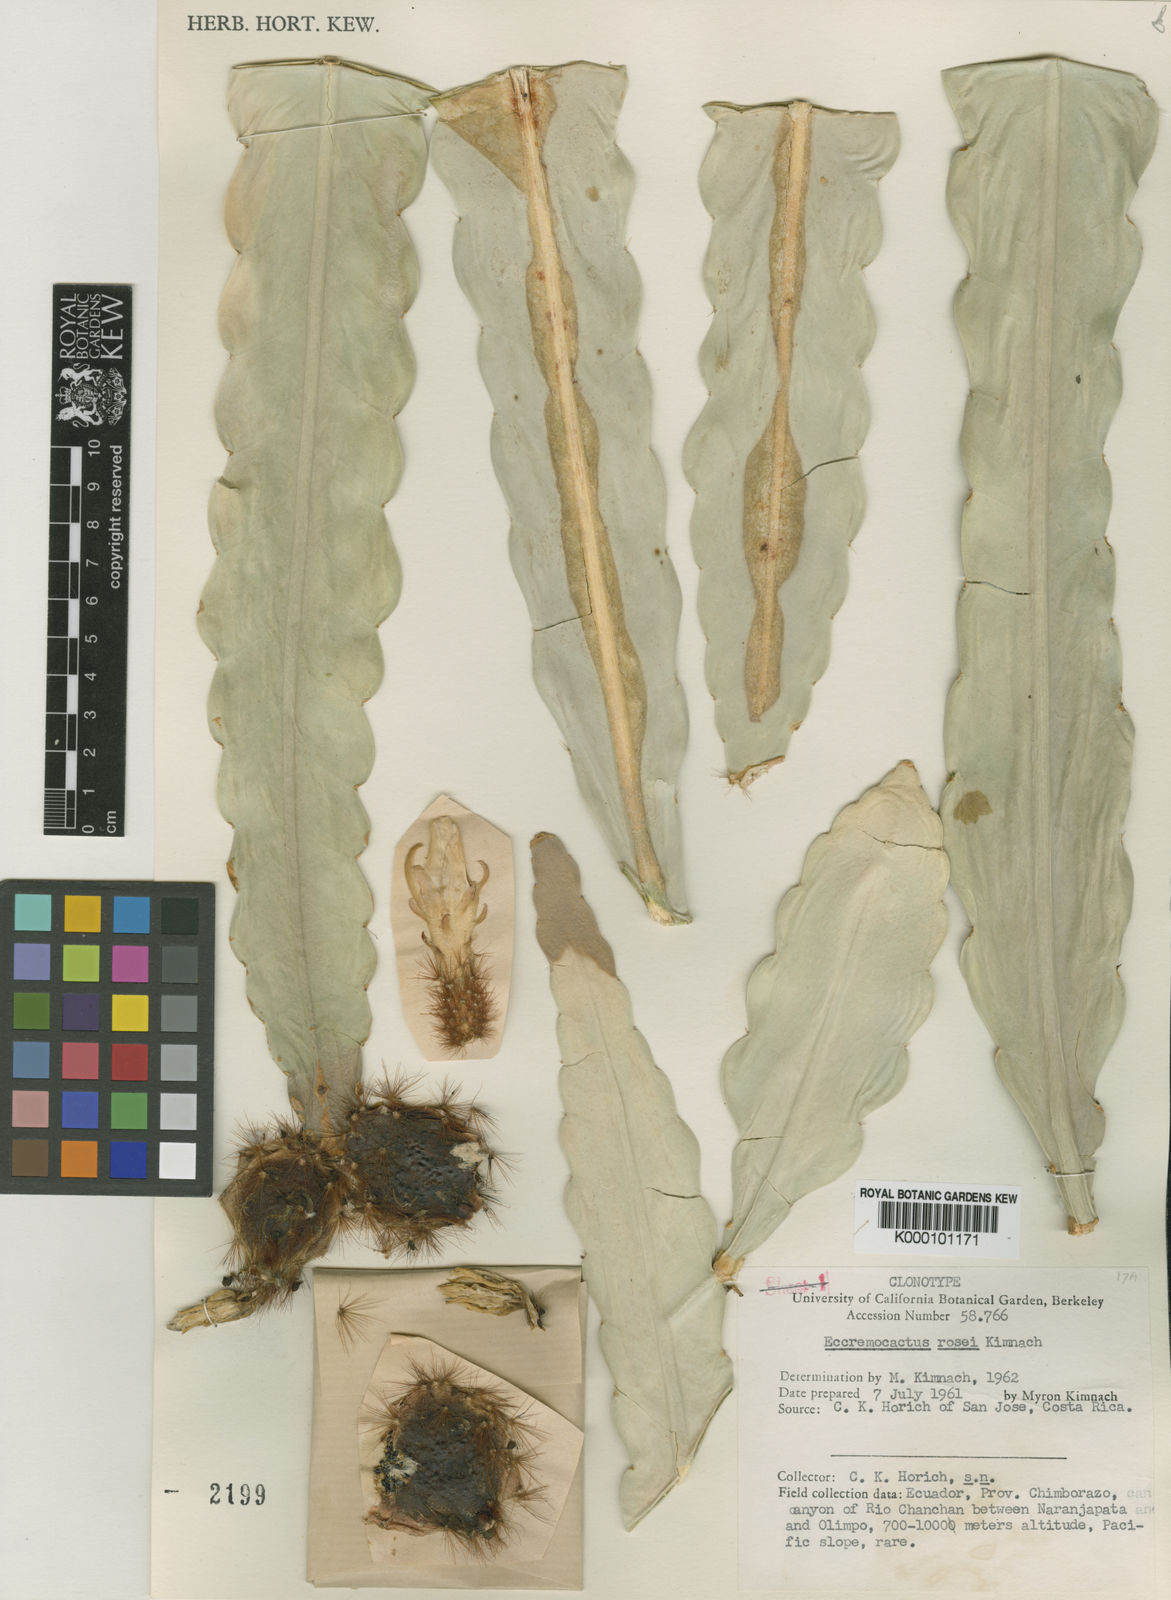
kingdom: Plantae
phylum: Tracheophyta
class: Magnoliopsida
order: Caryophyllales
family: Cactaceae
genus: Weberocereus
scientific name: Weberocereus rosei
